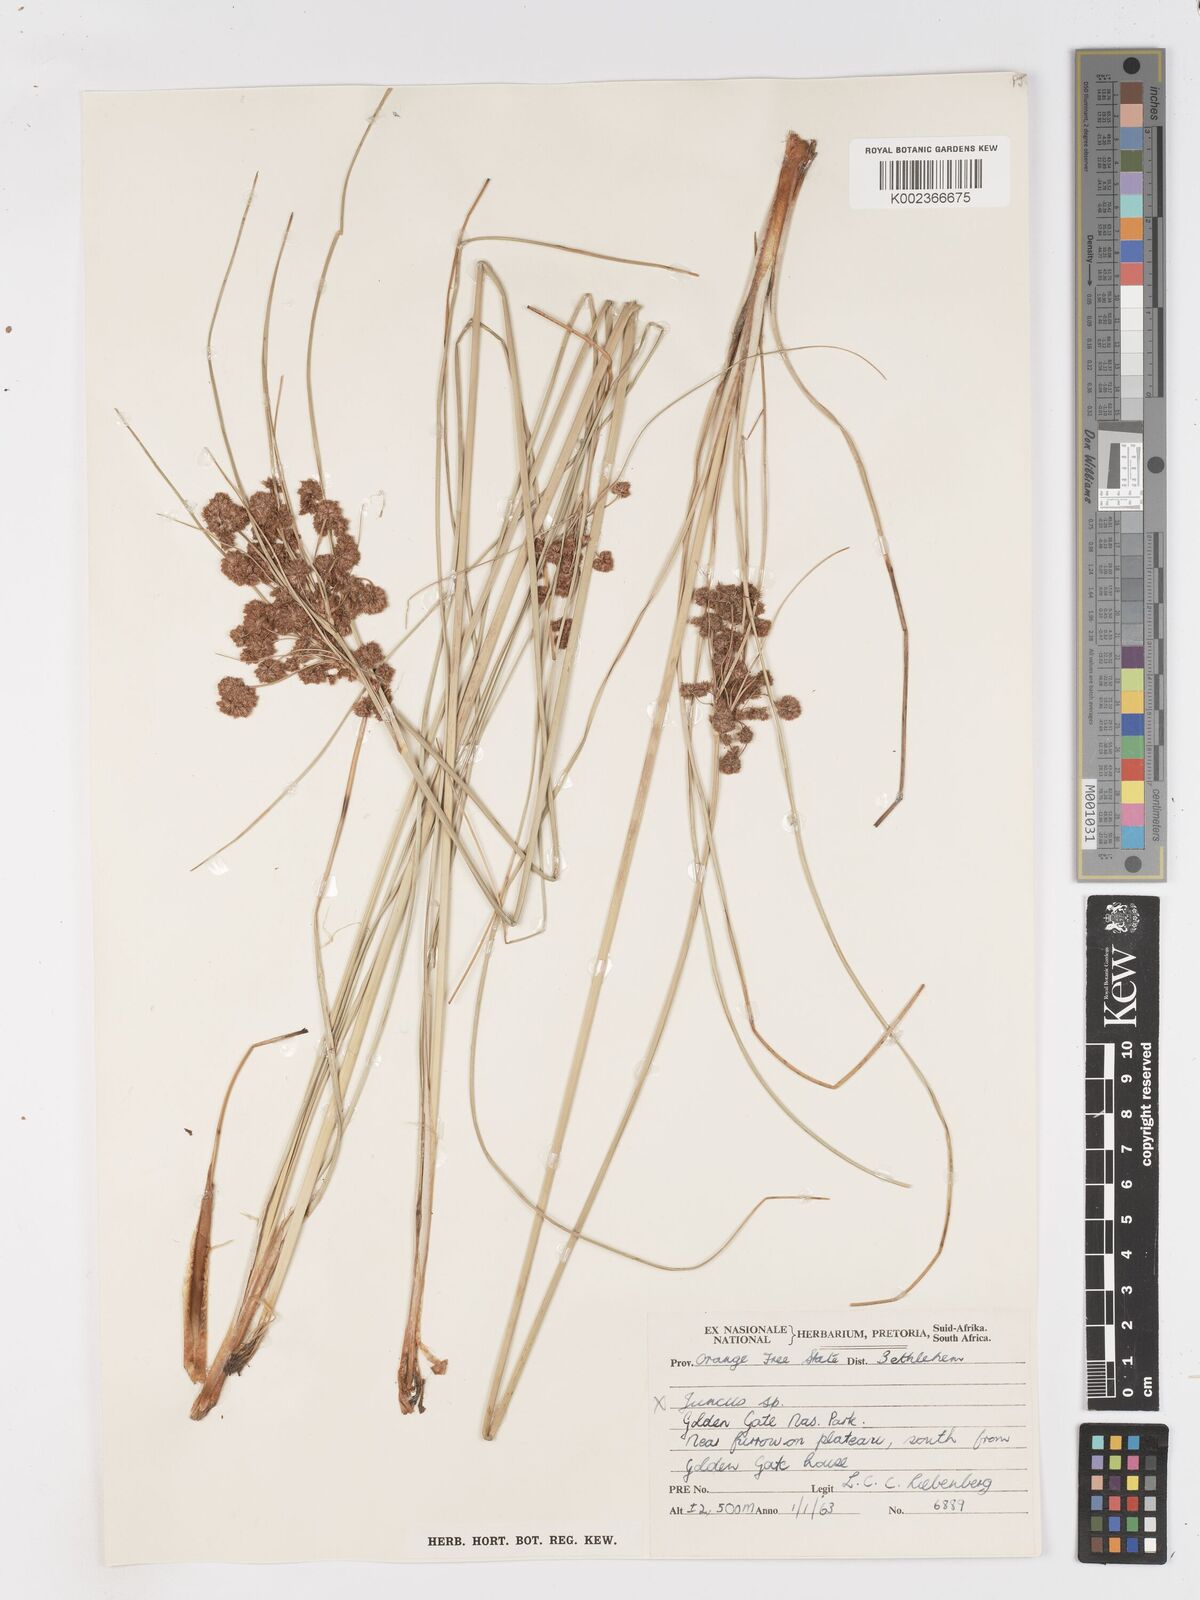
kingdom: Plantae
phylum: Tracheophyta
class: Liliopsida
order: Poales
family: Cyperaceae
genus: Scirpoides
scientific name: Scirpoides burkei
